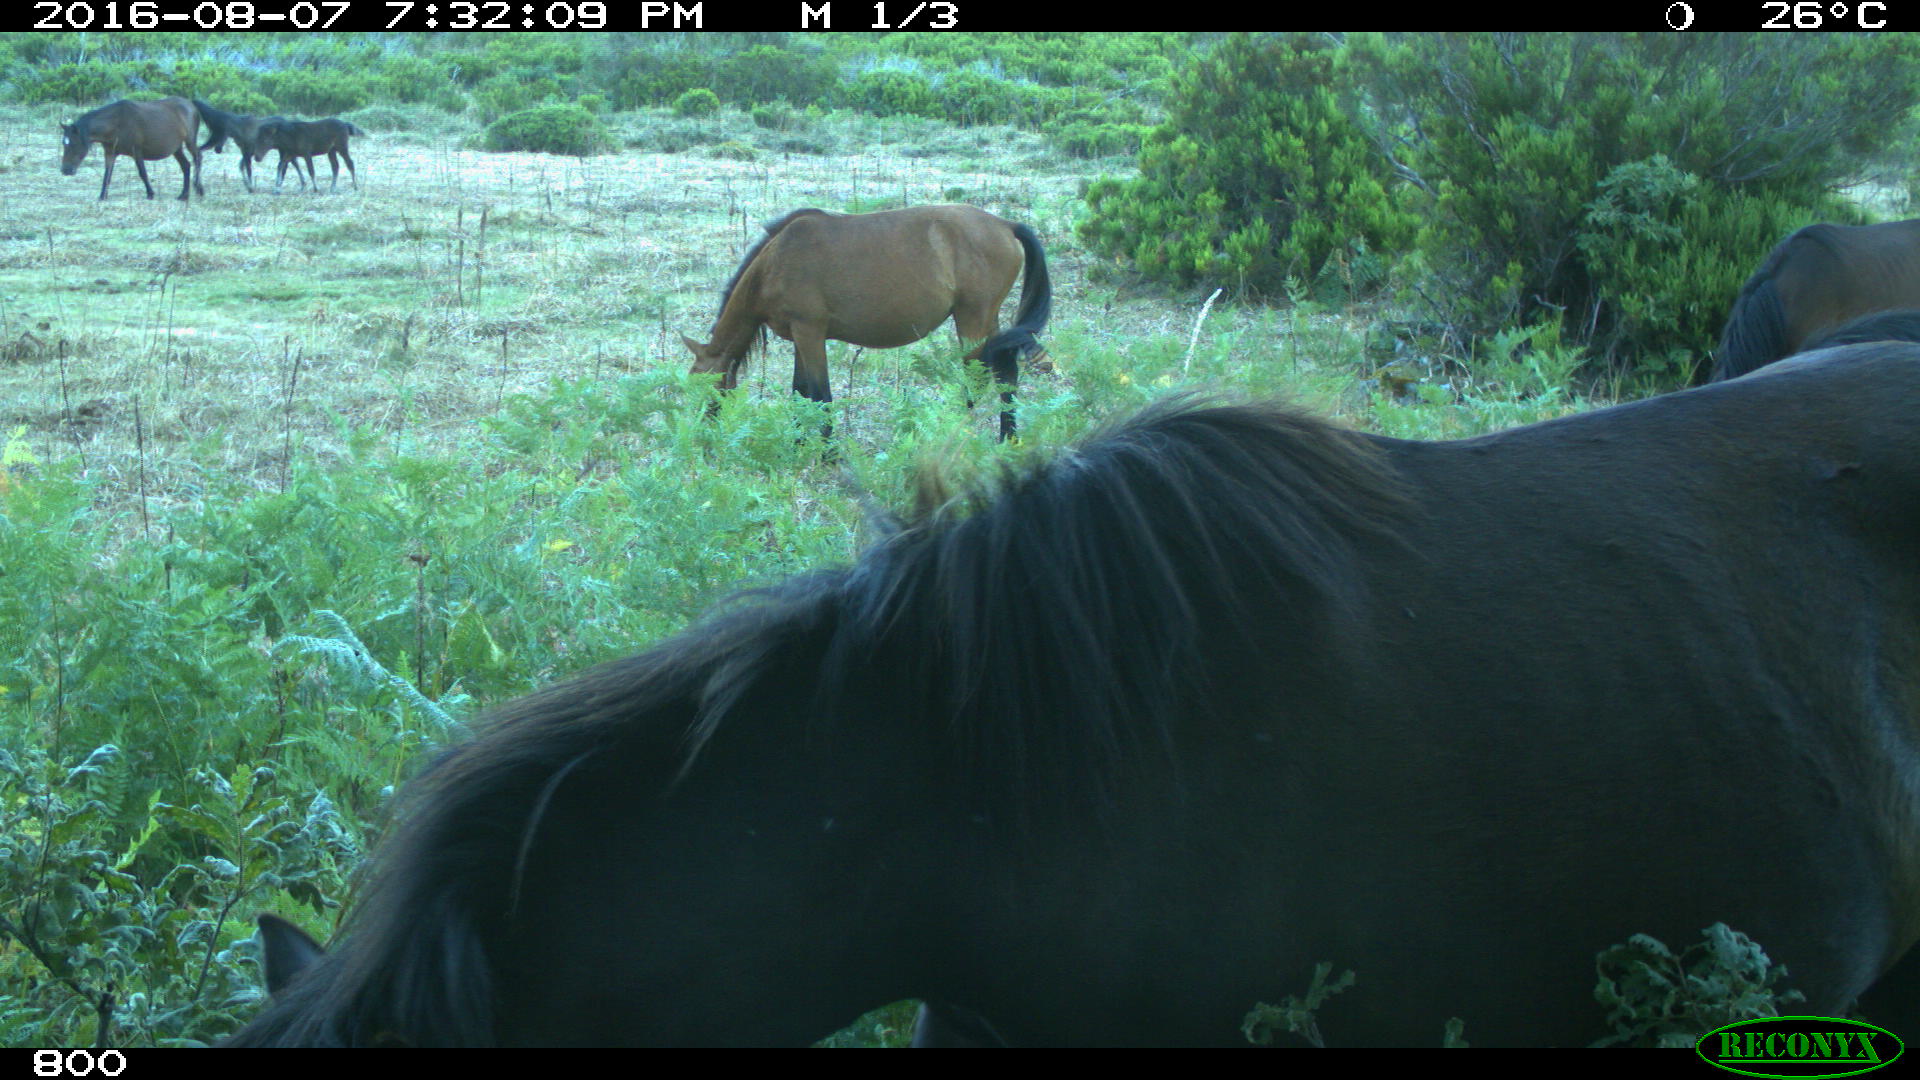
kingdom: Animalia
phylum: Chordata
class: Mammalia
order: Perissodactyla
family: Equidae
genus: Equus
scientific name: Equus caballus
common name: Horse
